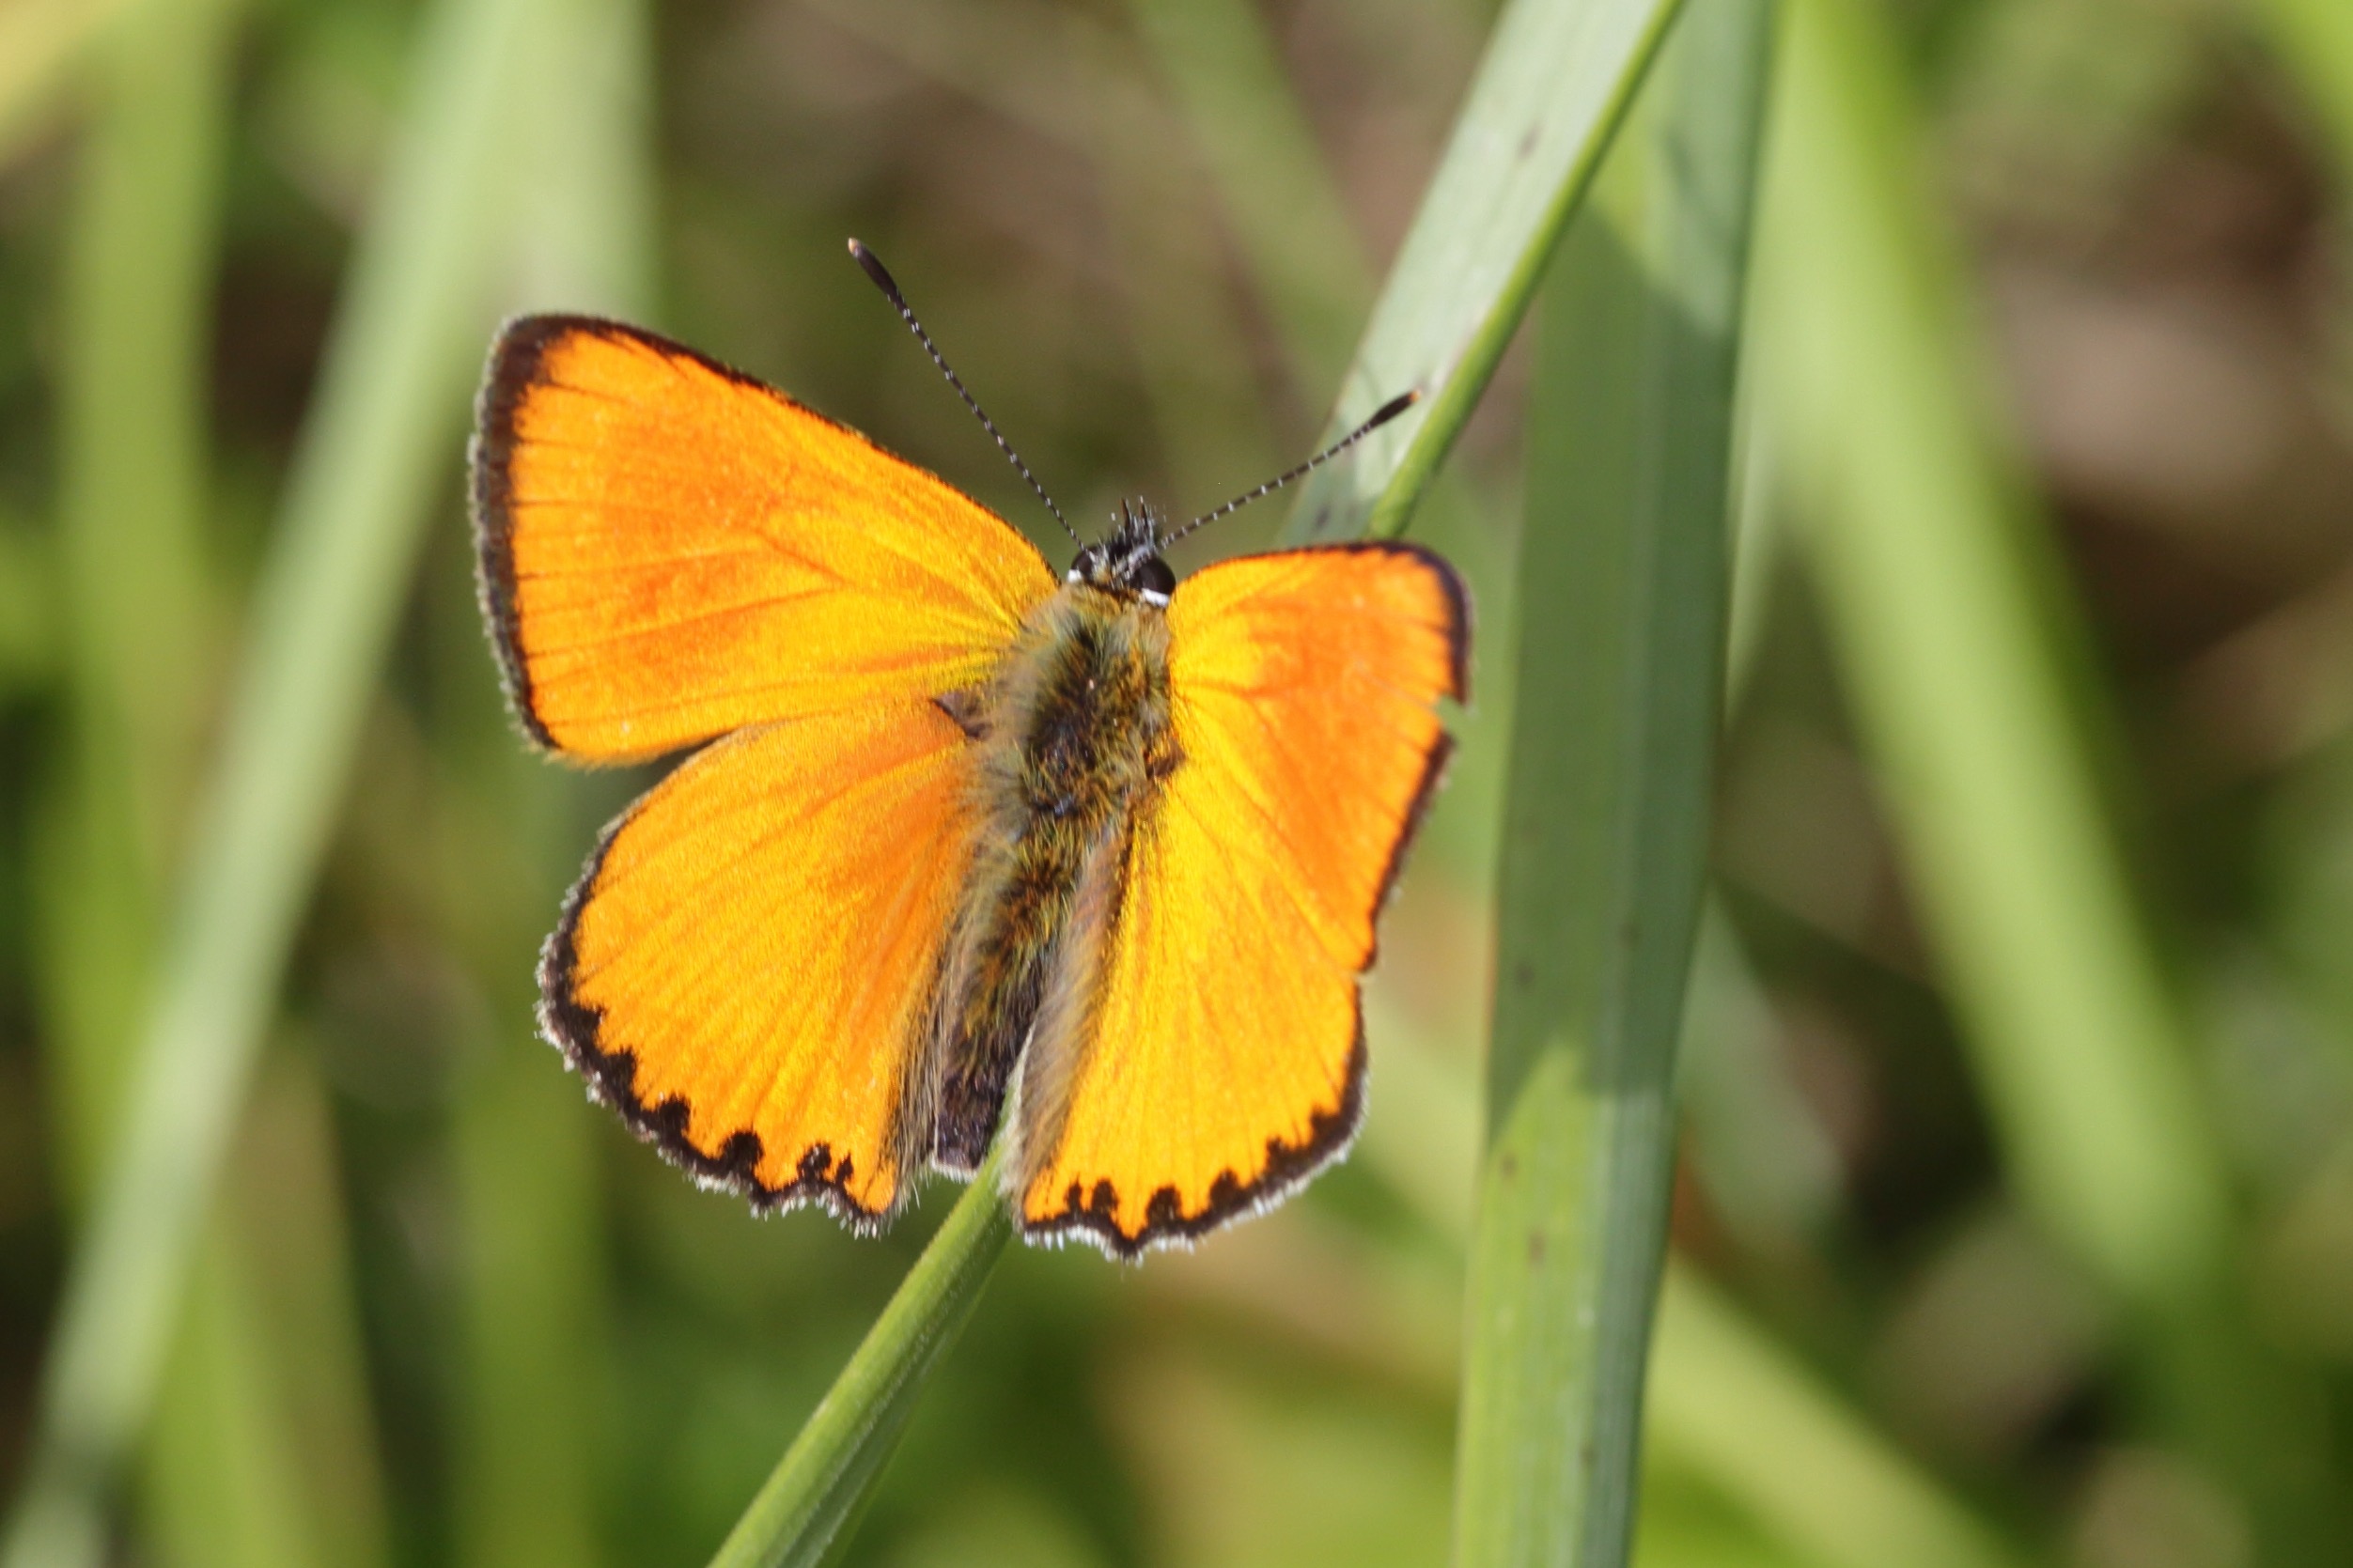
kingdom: Animalia
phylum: Arthropoda
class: Insecta
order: Lepidoptera
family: Lycaenidae
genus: Lycaena
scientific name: Lycaena virgaureae
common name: Dukatsommerfugl
